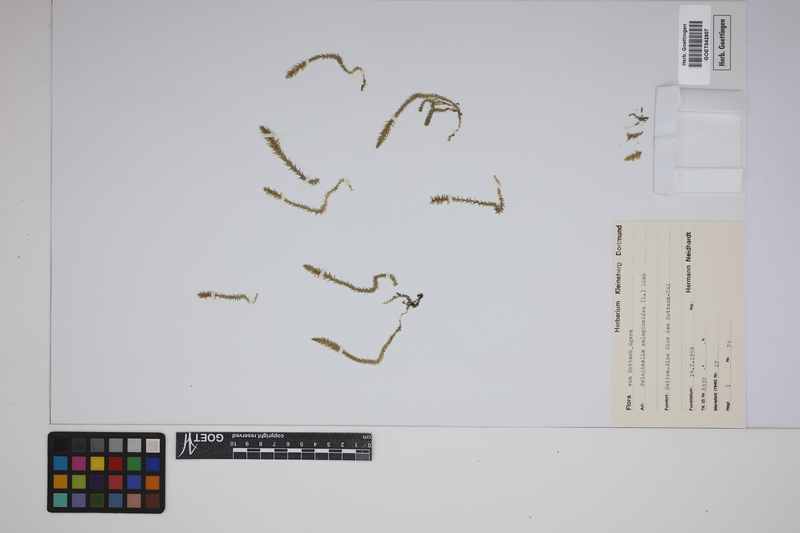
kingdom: Plantae
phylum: Tracheophyta
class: Lycopodiopsida
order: Selaginellales
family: Selaginellaceae
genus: Selaginella
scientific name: Selaginella selaginoides
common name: Prickly mountain-moss
